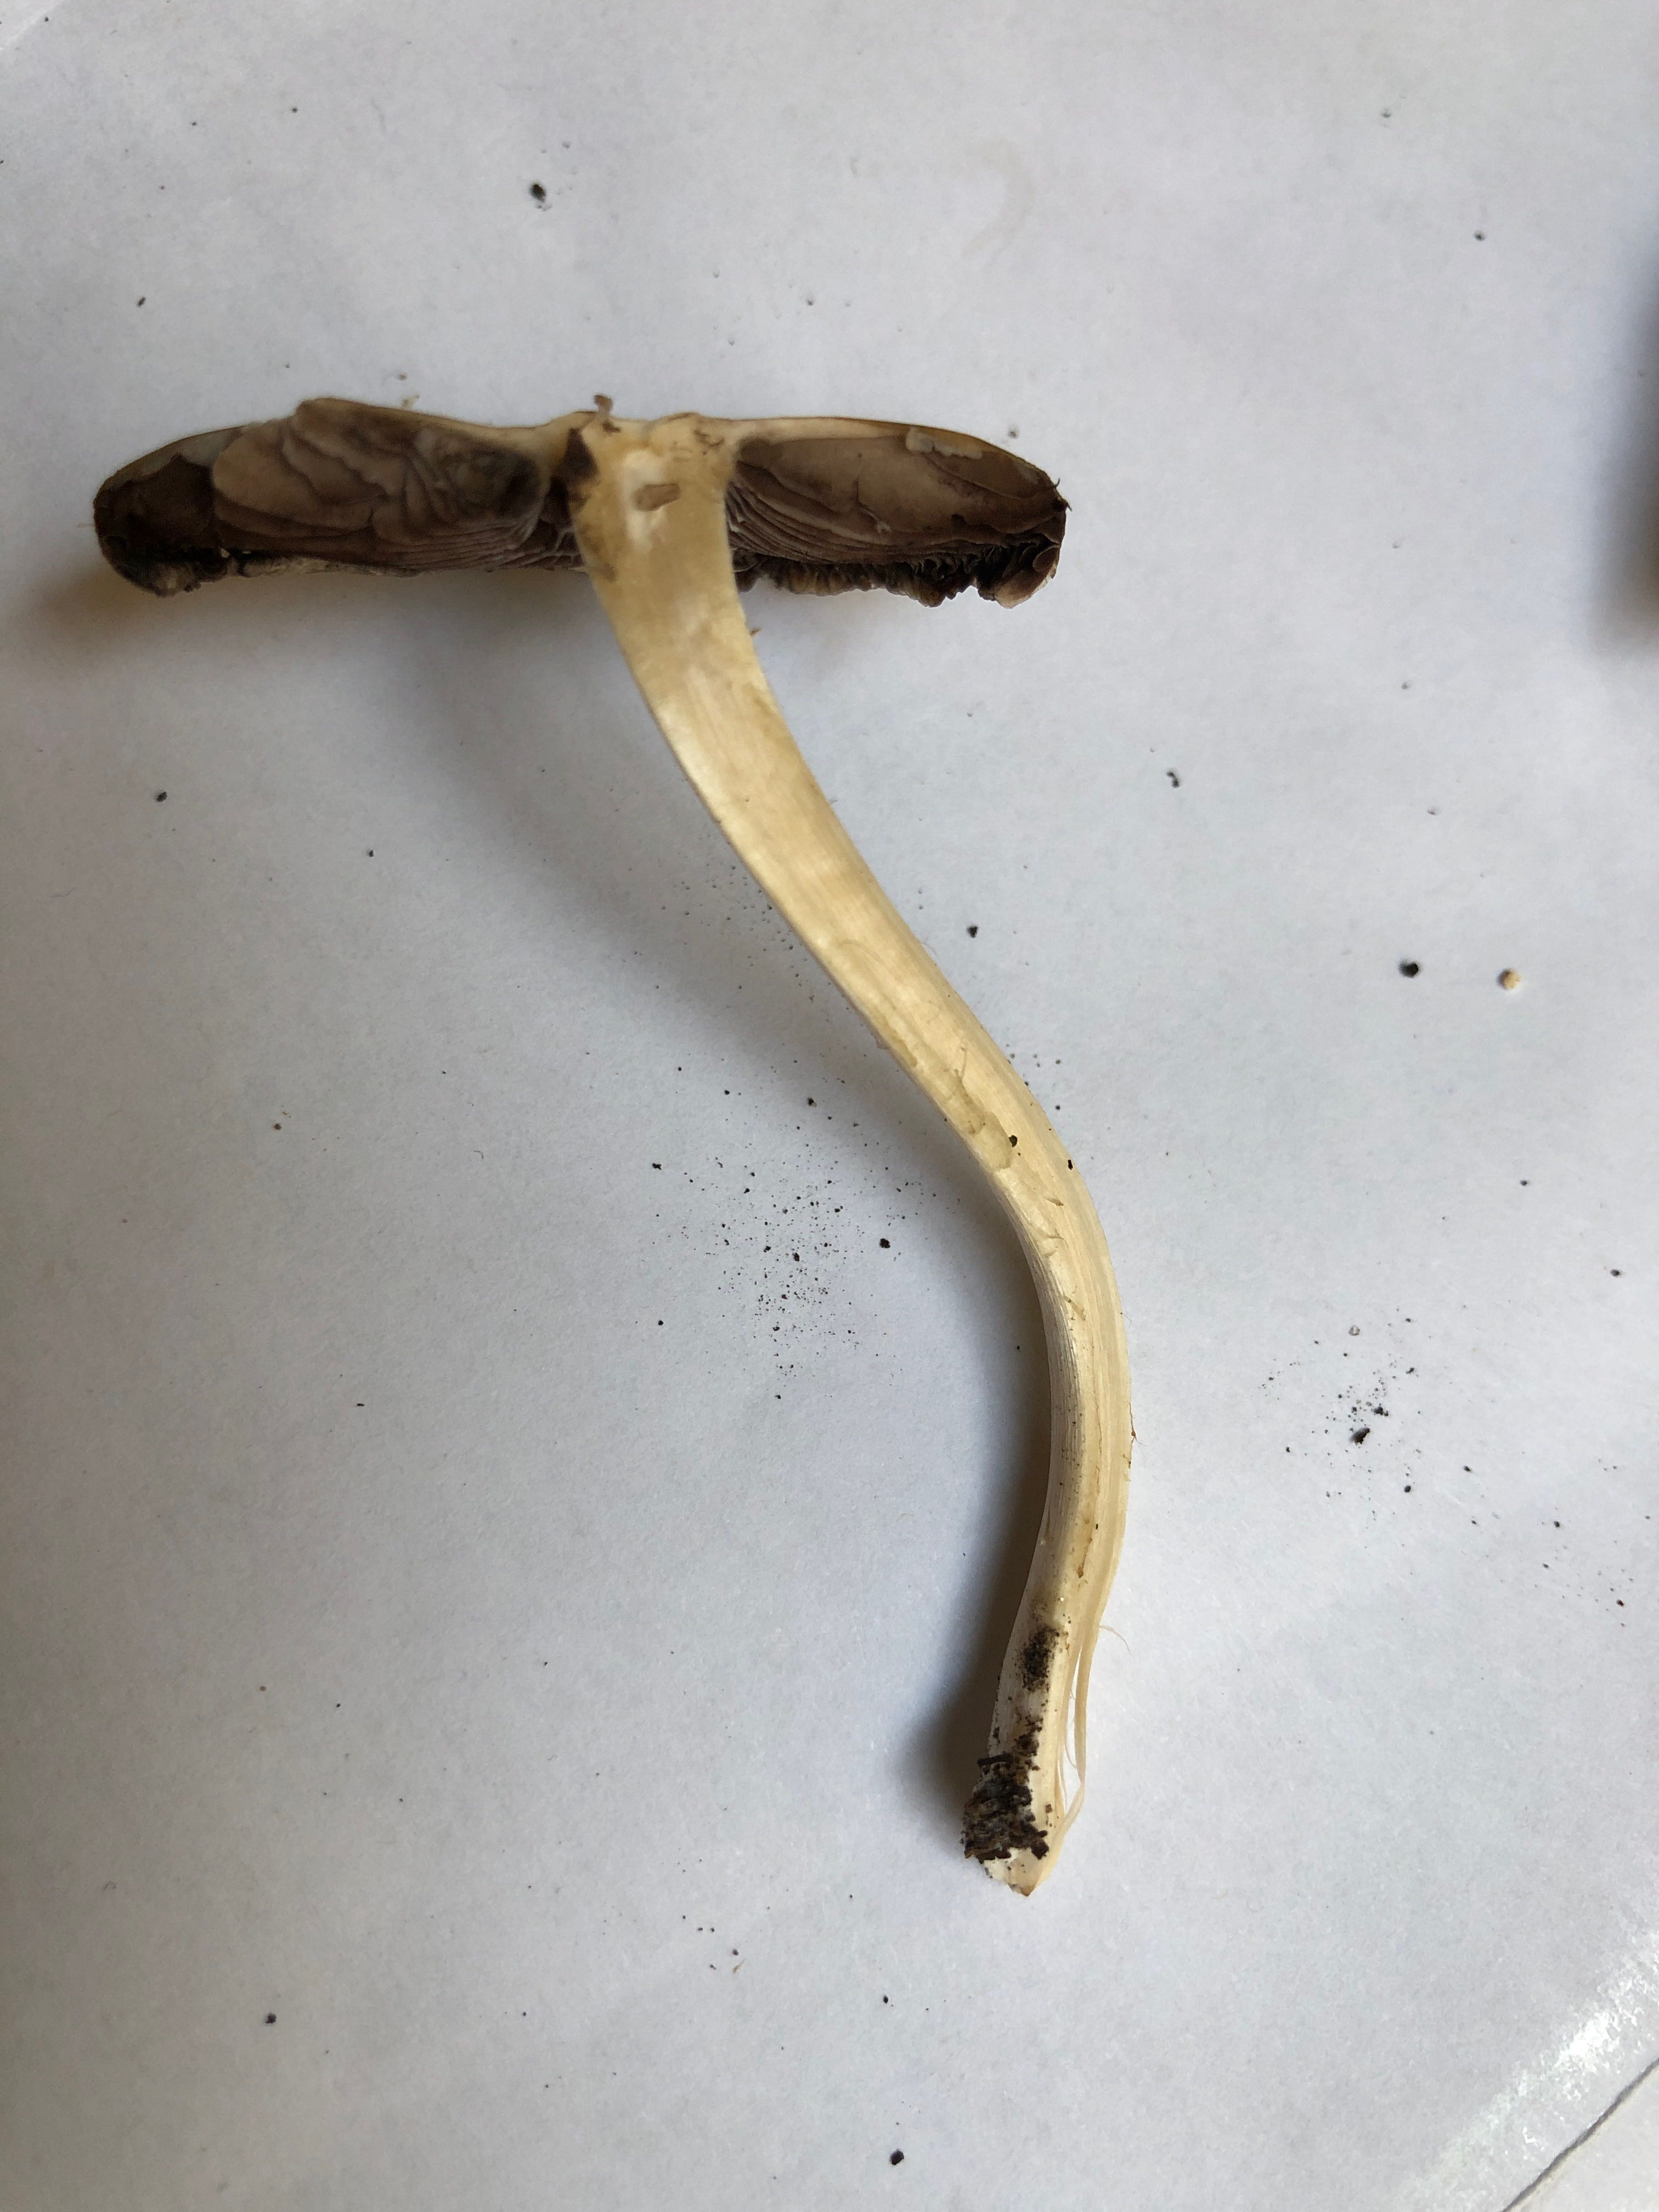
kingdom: Fungi
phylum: Basidiomycota
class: Agaricomycetes
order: Agaricales
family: Psathyrellaceae
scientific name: Psathyrellaceae
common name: mørkhatfamilien
